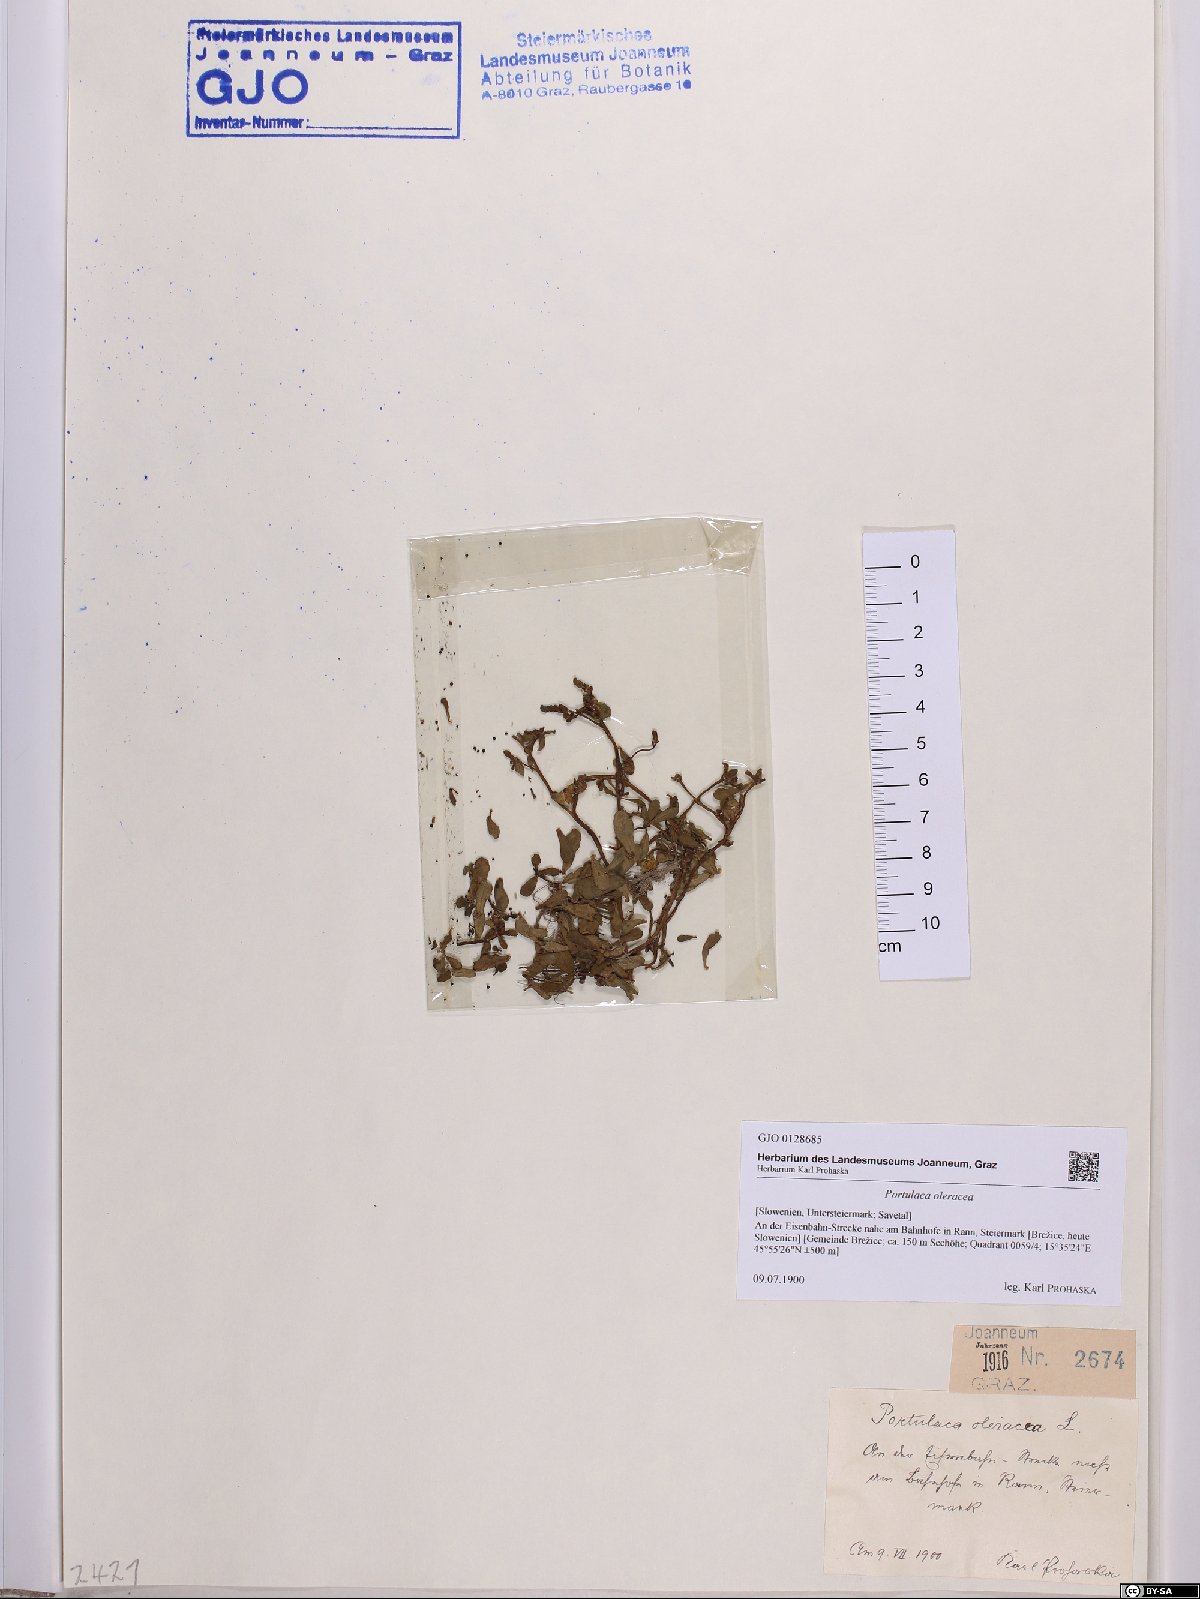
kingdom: Plantae
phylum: Tracheophyta
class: Magnoliopsida
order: Caryophyllales
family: Portulacaceae
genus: Portulaca
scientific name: Portulaca oleracea
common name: Common purslane
